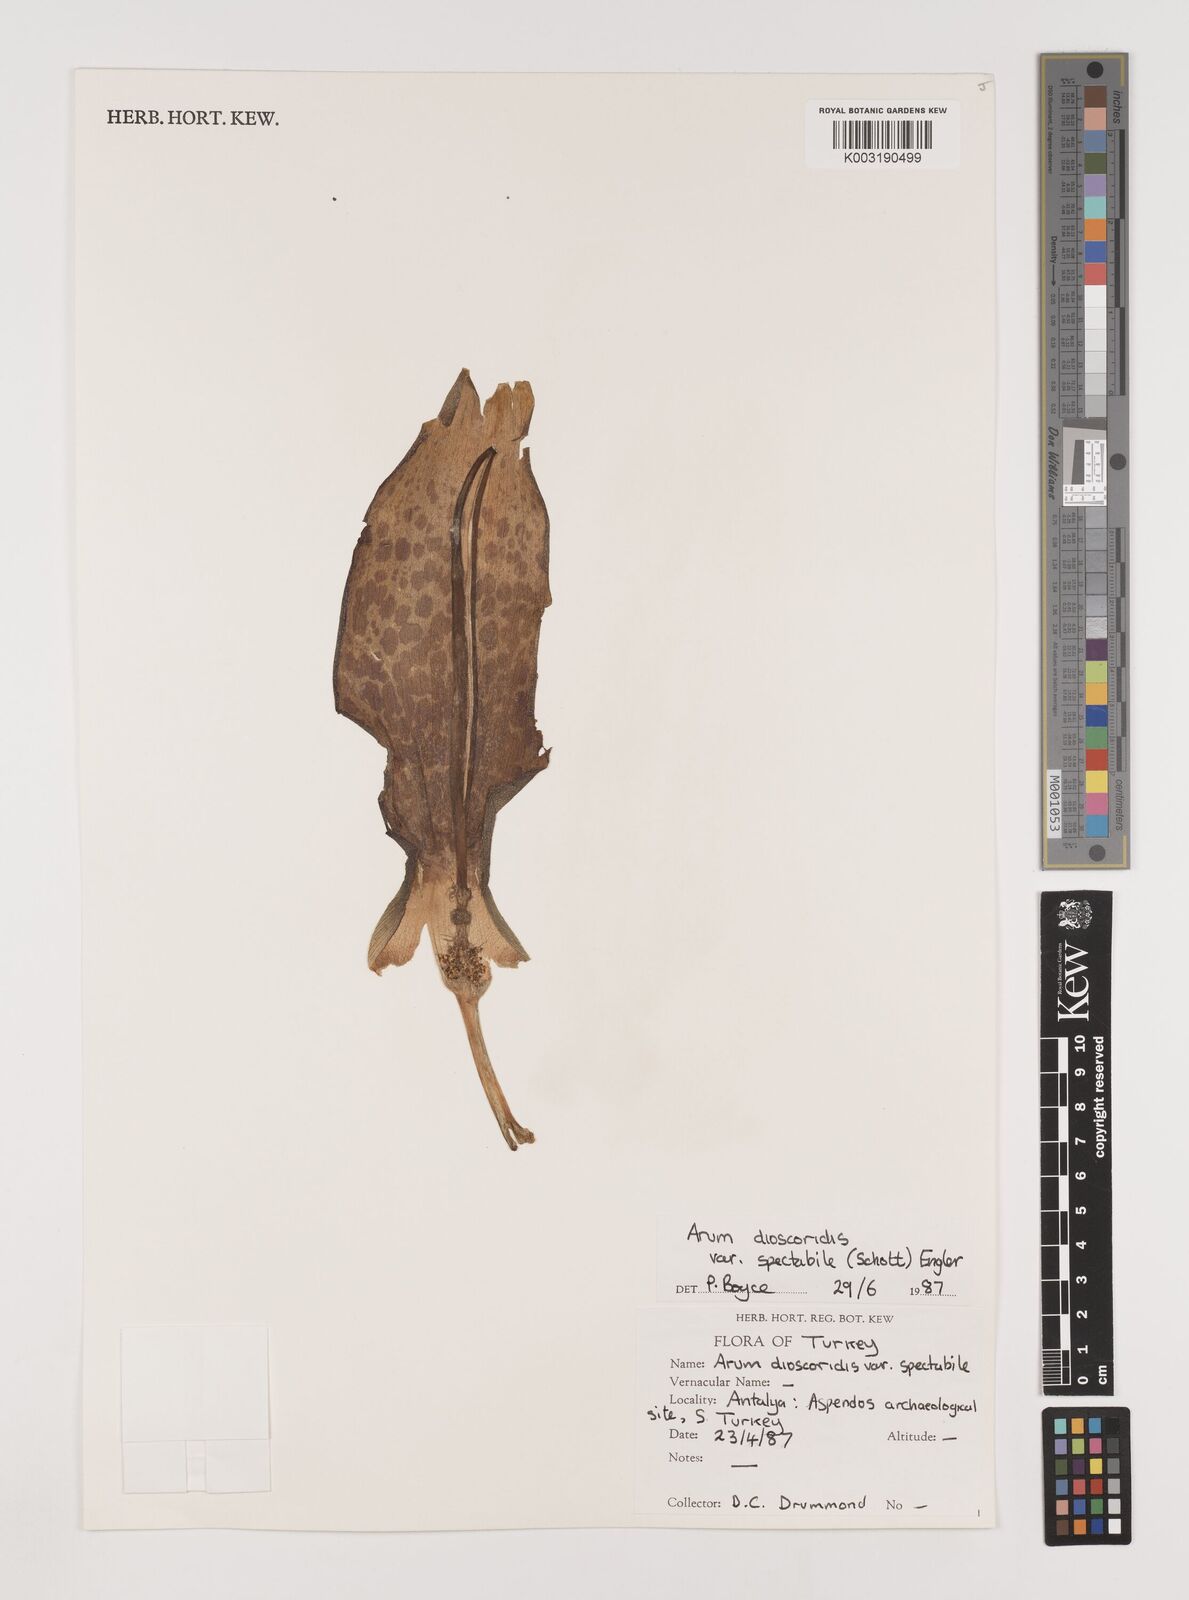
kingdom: Plantae
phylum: Tracheophyta
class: Liliopsida
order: Alismatales
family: Araceae
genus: Arum
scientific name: Arum dioscoridis
